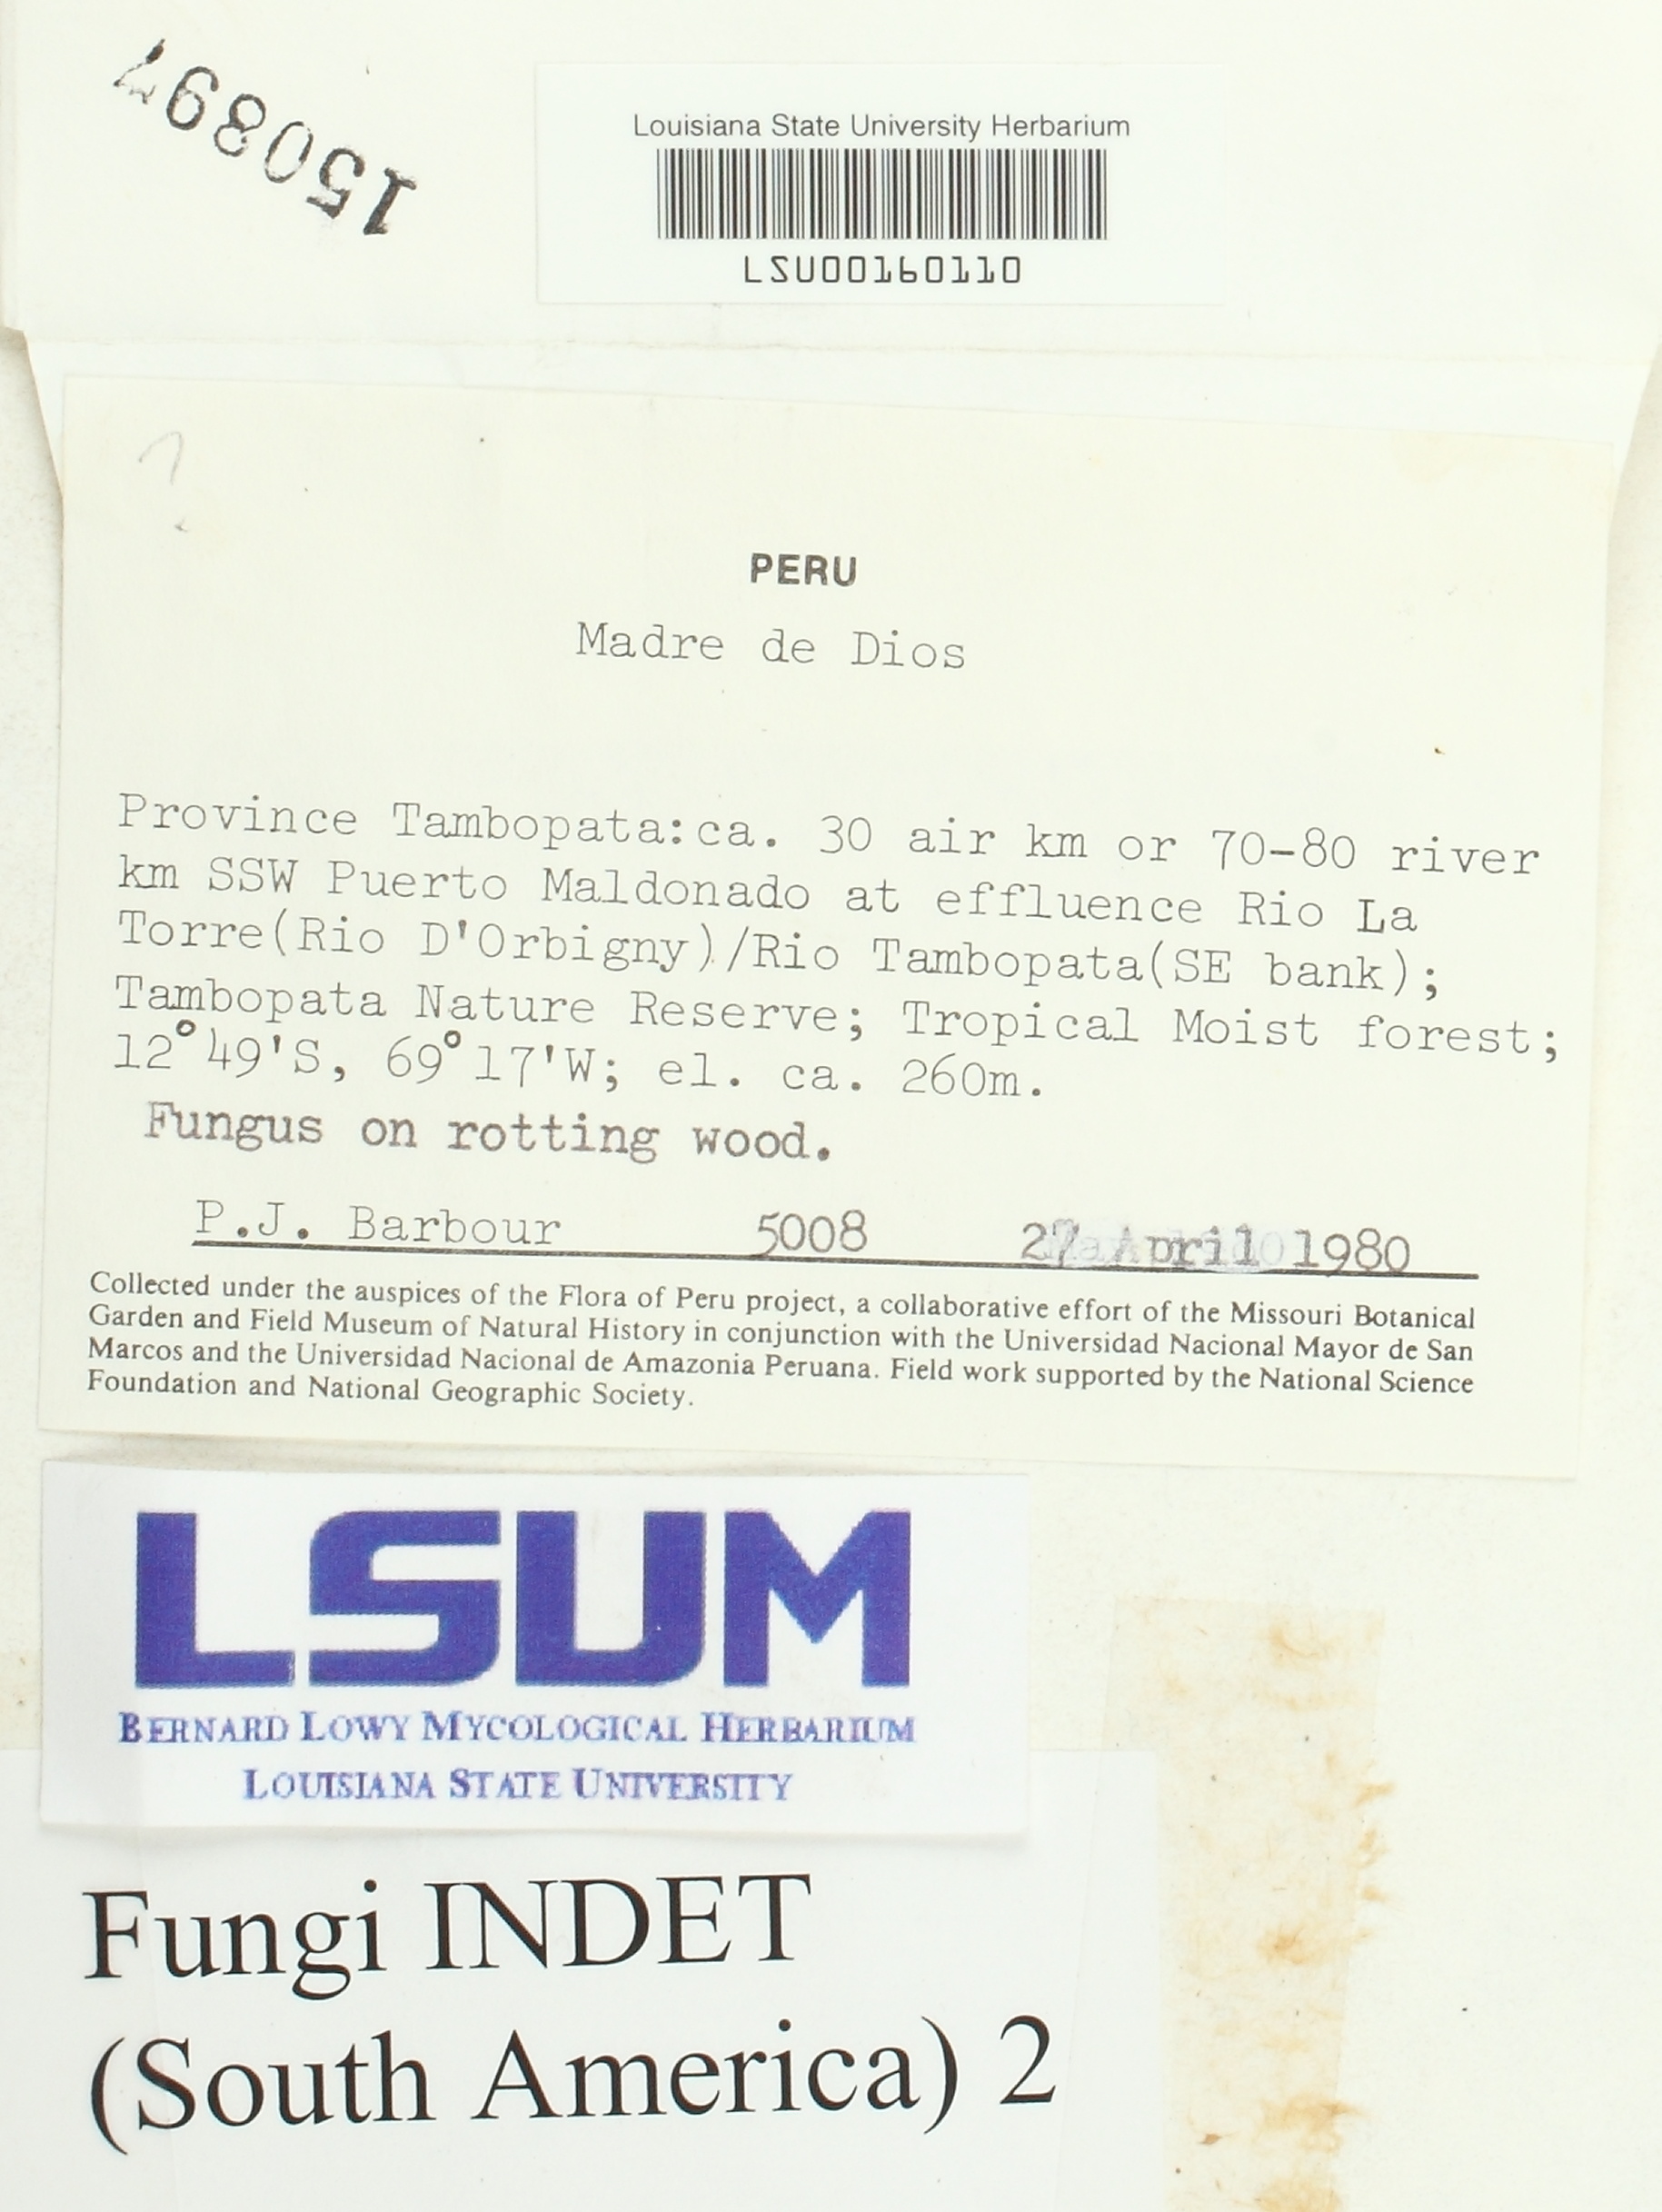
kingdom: Fungi
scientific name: Fungi
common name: Fungi
